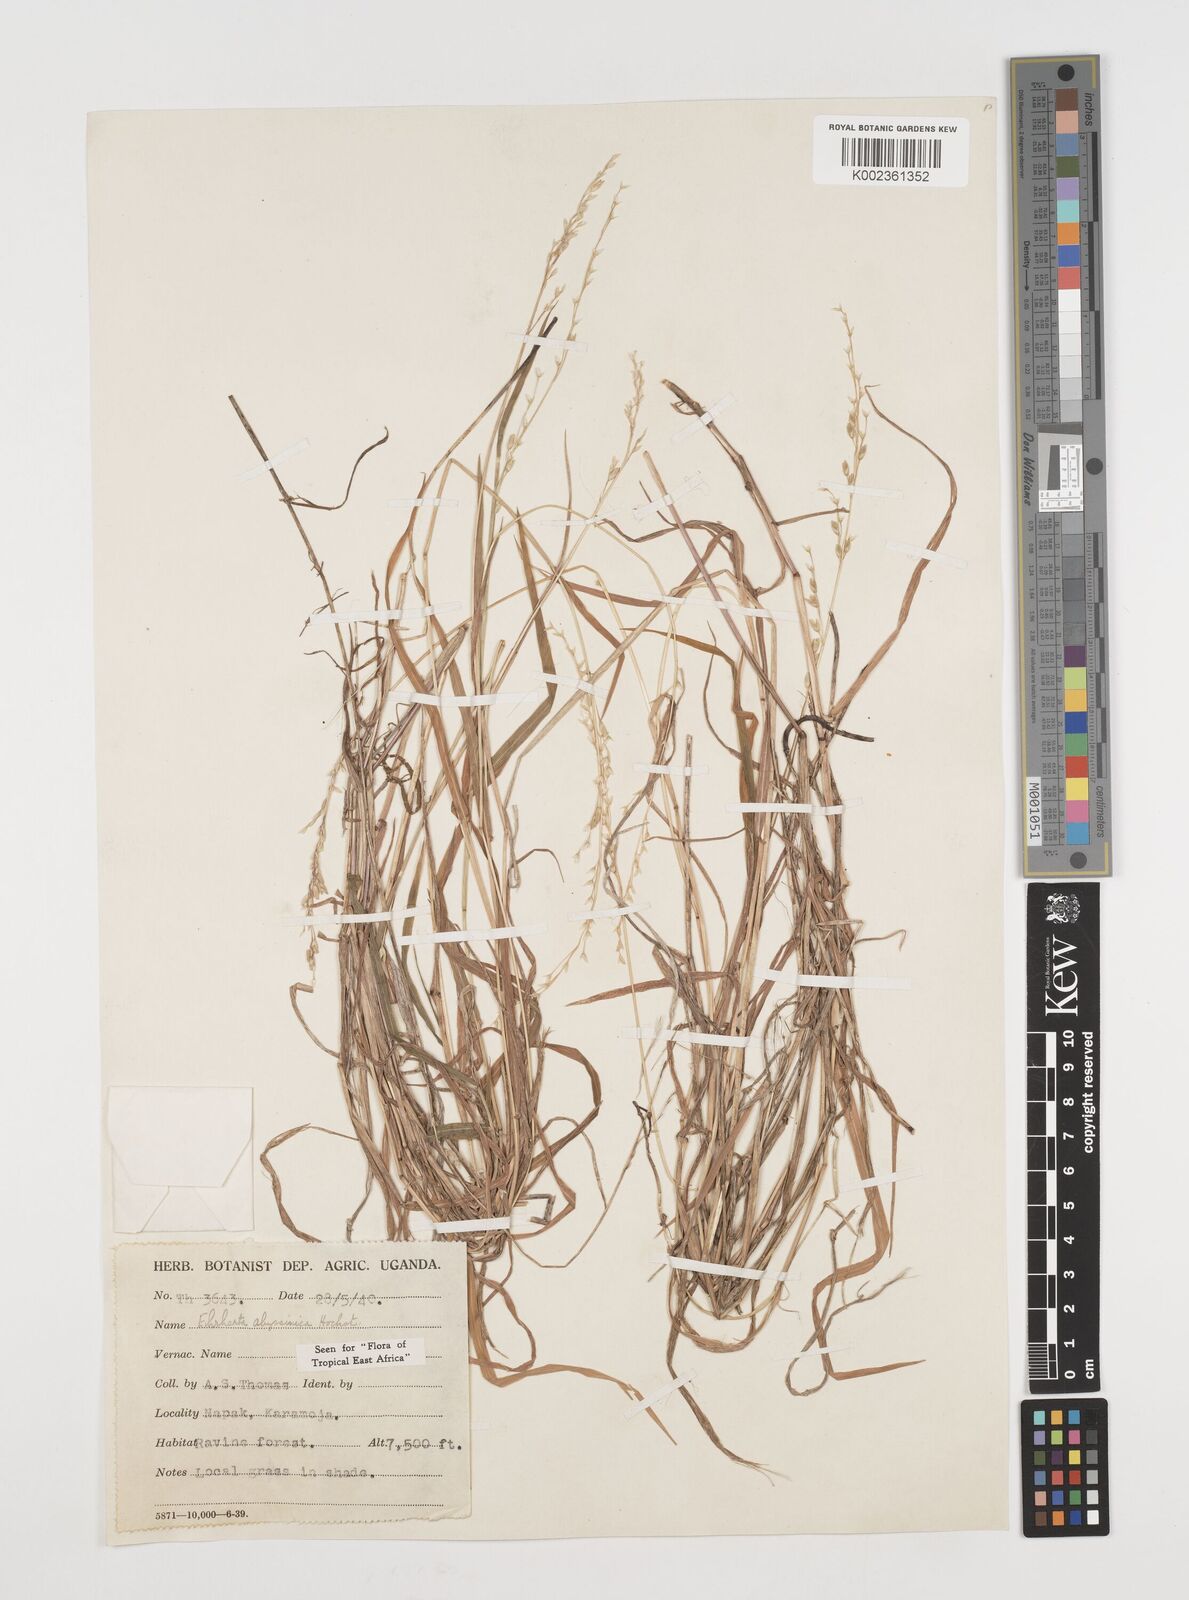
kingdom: Plantae
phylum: Tracheophyta
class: Liliopsida
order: Poales
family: Poaceae
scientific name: Poaceae
